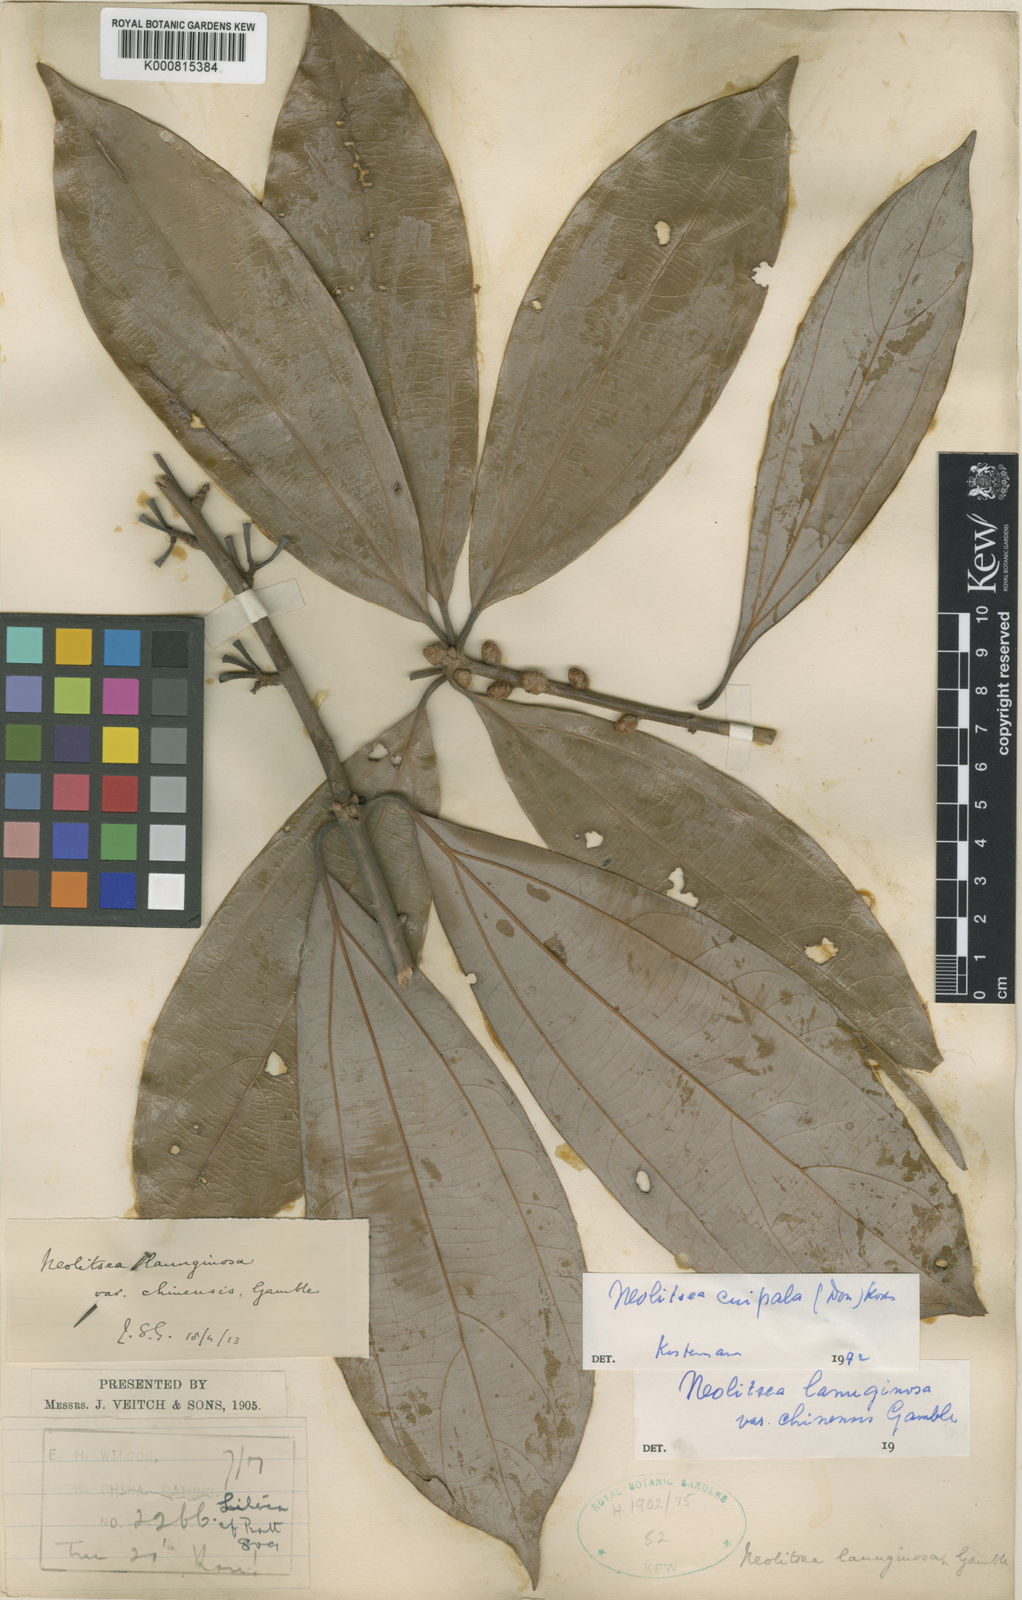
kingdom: Plantae
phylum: Tracheophyta
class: Magnoliopsida
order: Laurales
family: Lauraceae
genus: Neolitsea
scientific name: Neolitsea cuipala
